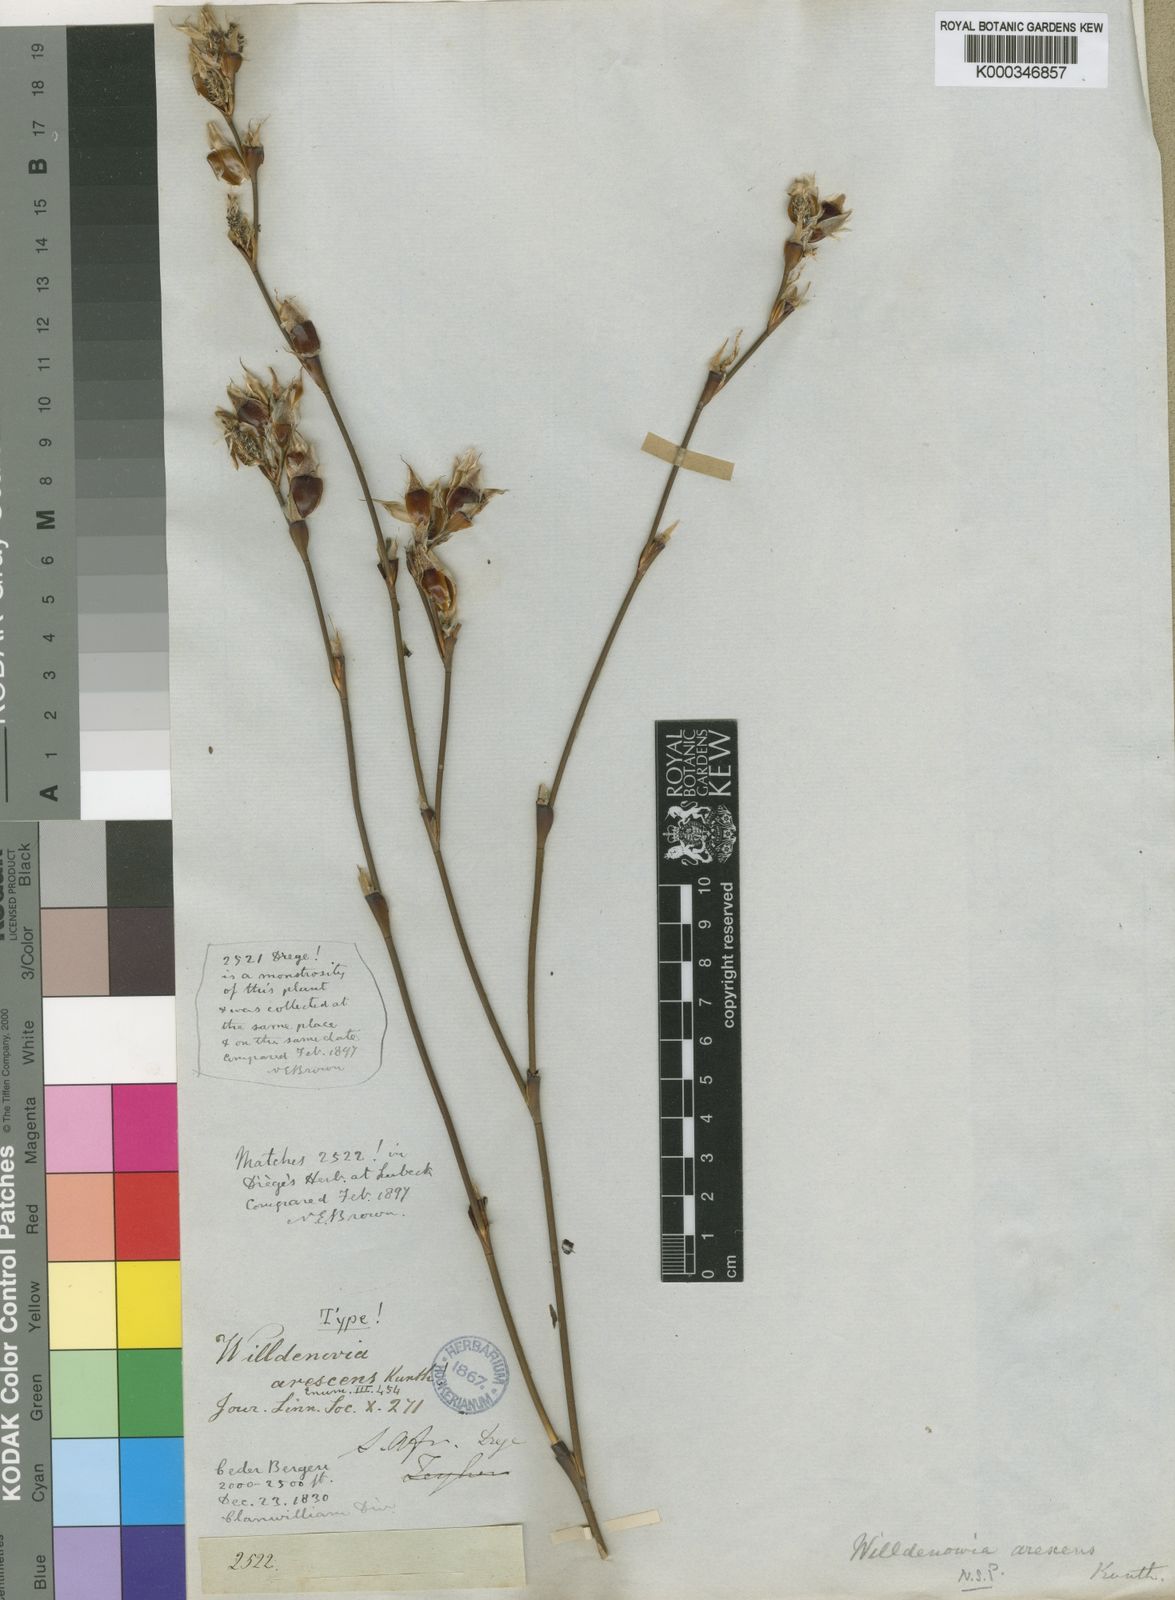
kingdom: Plantae
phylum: Tracheophyta
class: Liliopsida
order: Poales
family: Restionaceae
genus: Willdenowia
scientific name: Willdenowia arescens
